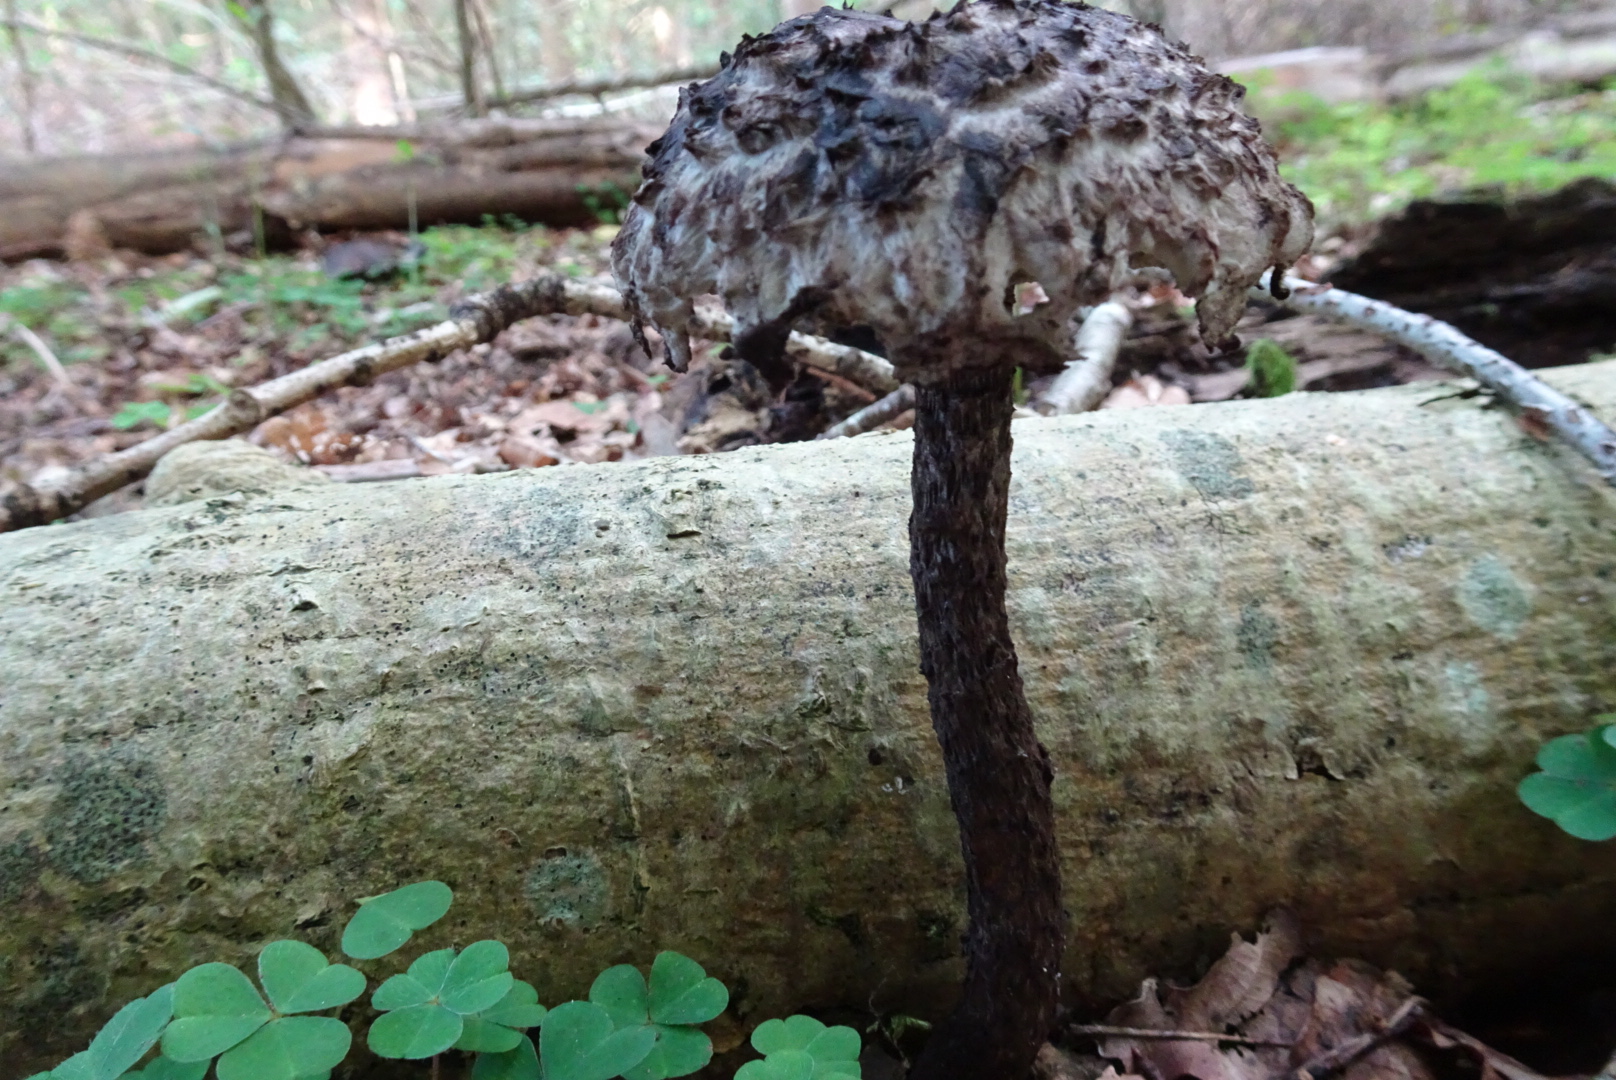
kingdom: Fungi
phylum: Basidiomycota
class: Agaricomycetes
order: Boletales
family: Boletaceae
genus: Strobilomyces
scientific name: Strobilomyces strobilaceus
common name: koglerørhat
